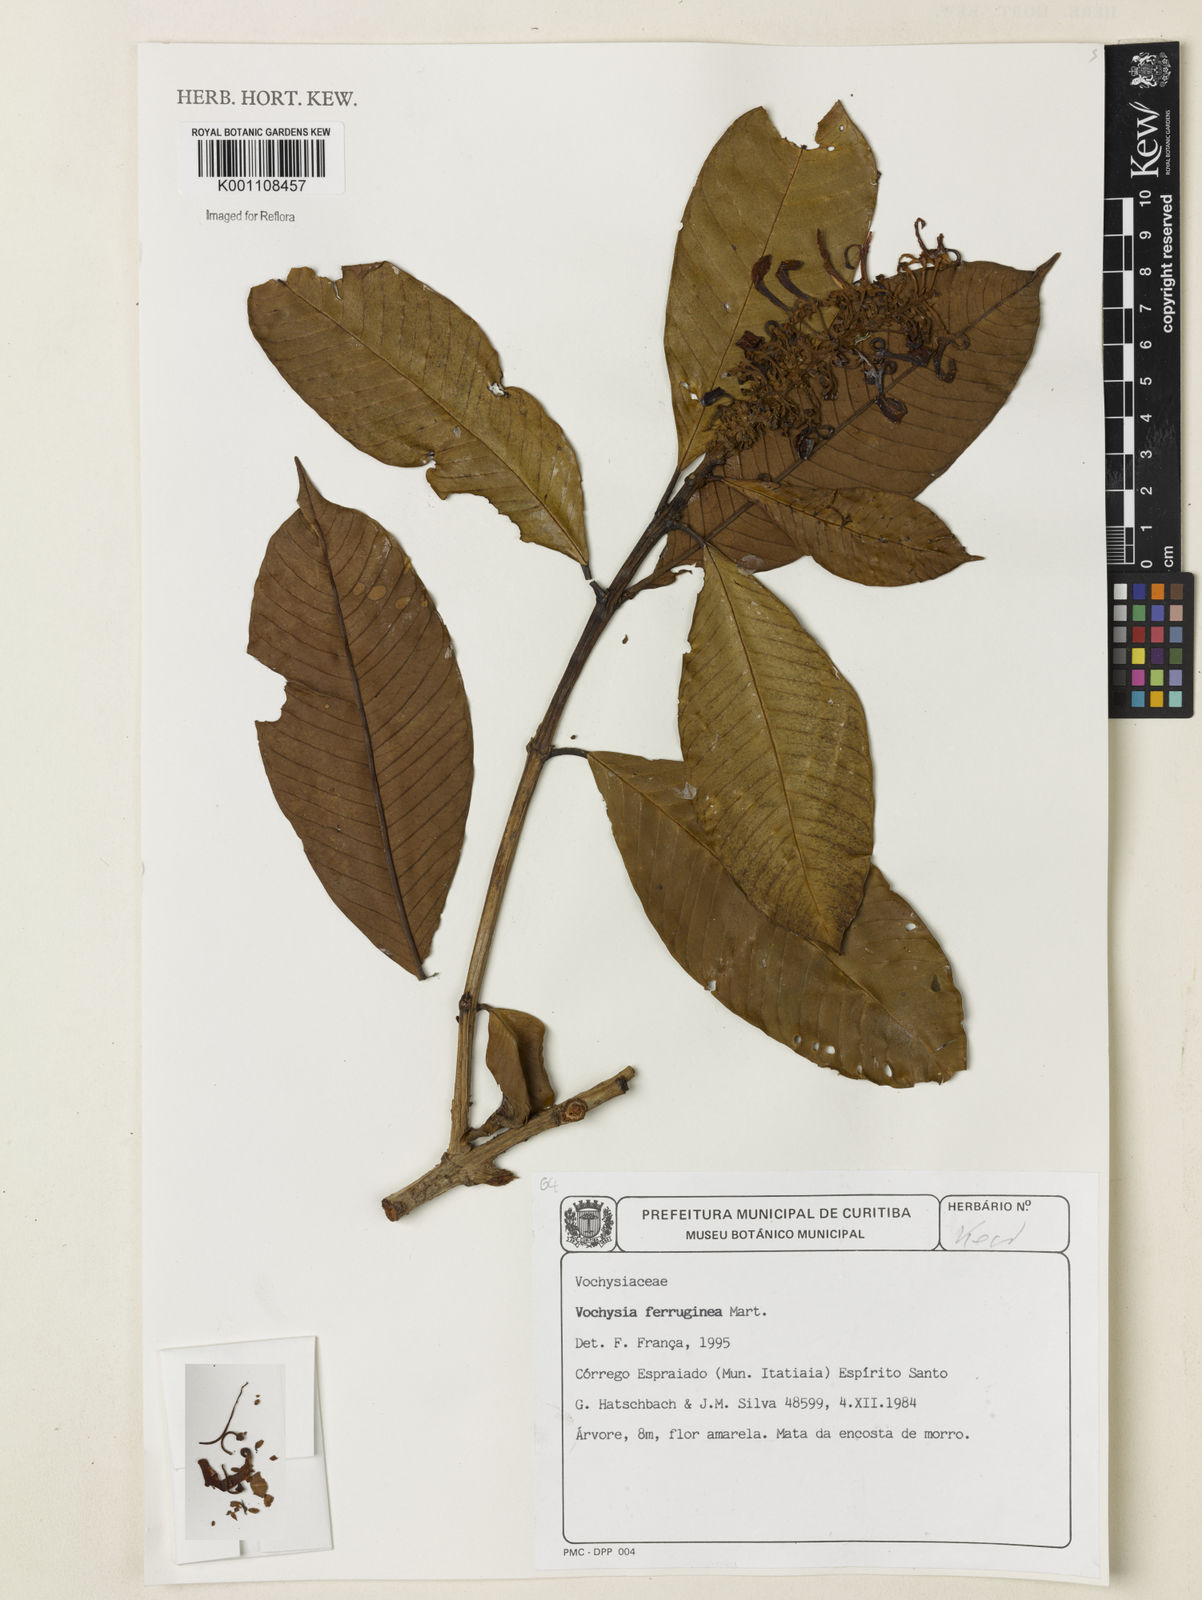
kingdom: Plantae
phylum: Tracheophyta
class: Magnoliopsida
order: Myrtales
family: Vochysiaceae
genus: Vochysia
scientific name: Vochysia ferruginea
